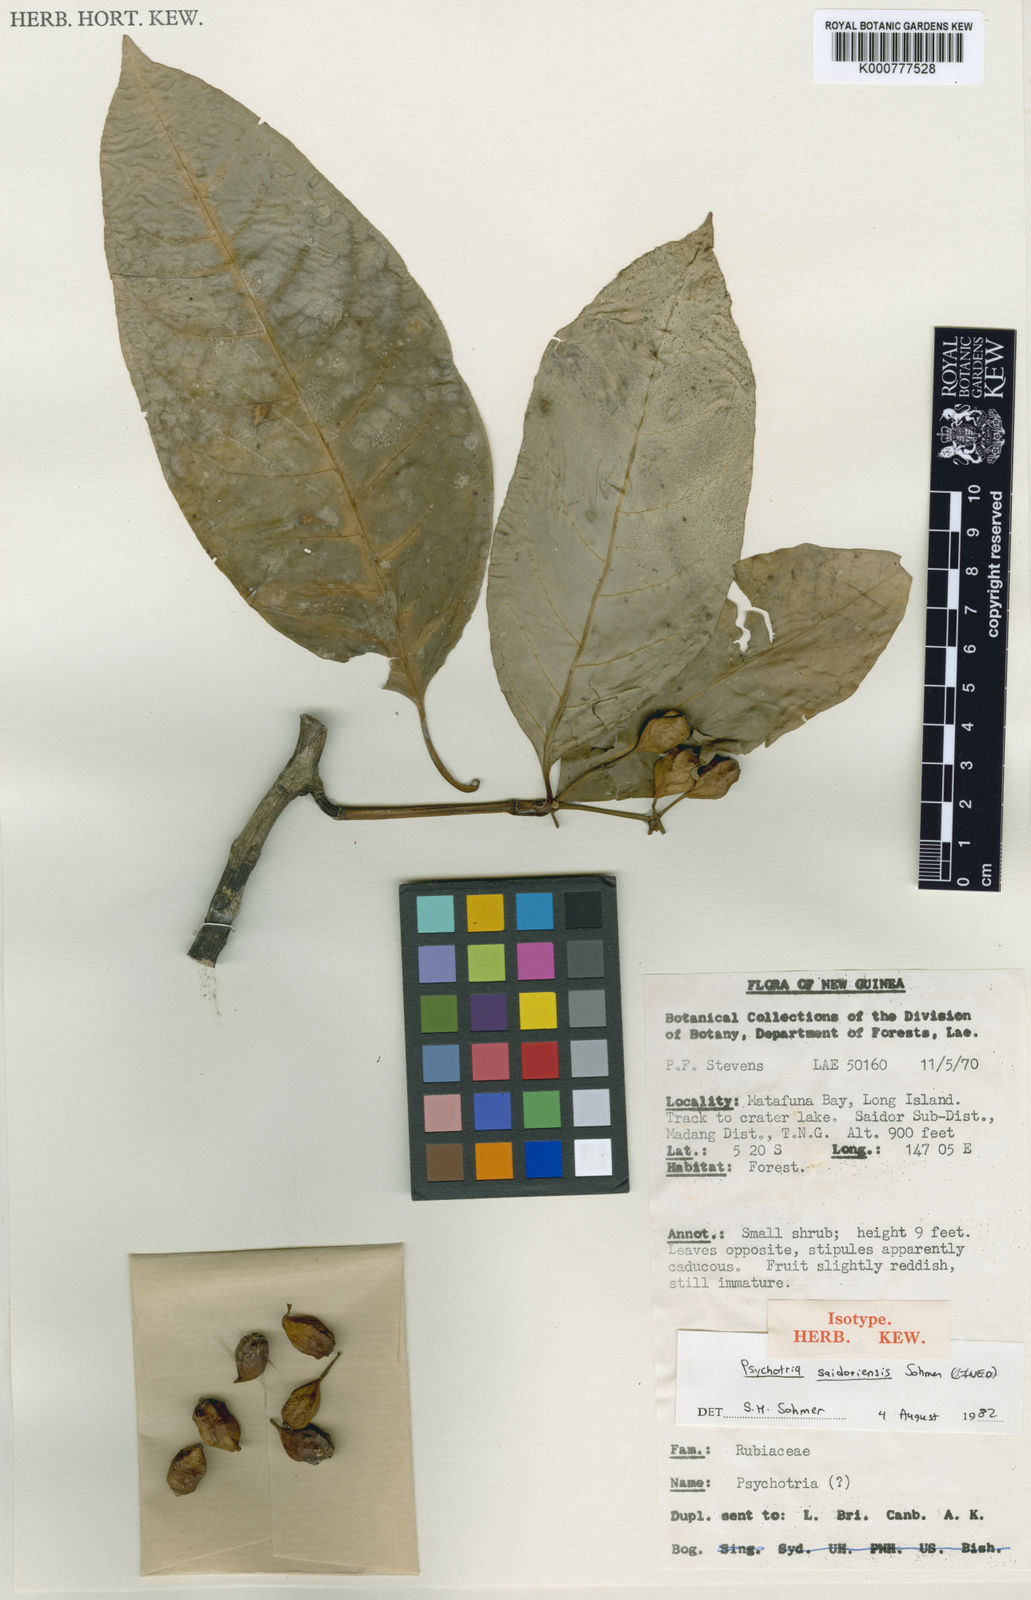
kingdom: Plantae
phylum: Tracheophyta
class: Magnoliopsida
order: Gentianales
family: Rubiaceae
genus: Eumachia
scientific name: Eumachia saidoriensis
